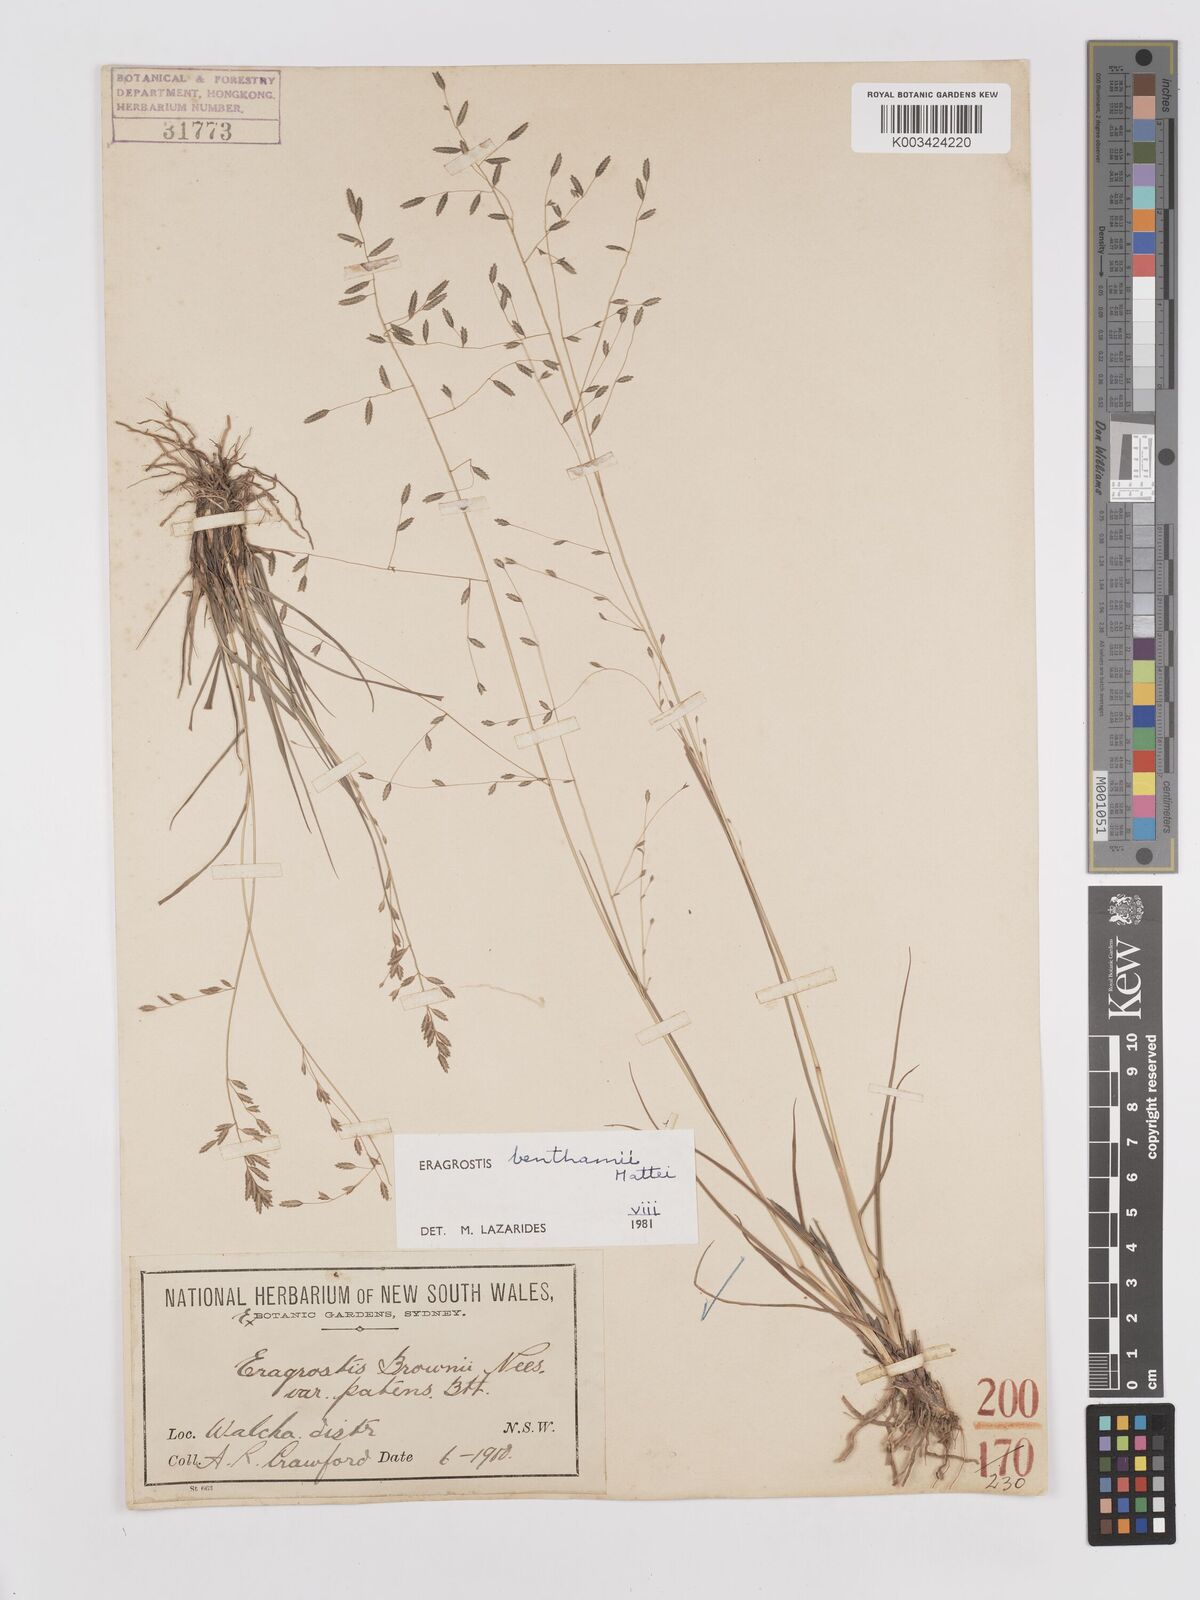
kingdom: Plantae
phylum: Tracheophyta
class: Liliopsida
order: Poales
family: Poaceae
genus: Eragrostis
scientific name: Eragrostis brownii
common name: Lovegrass
